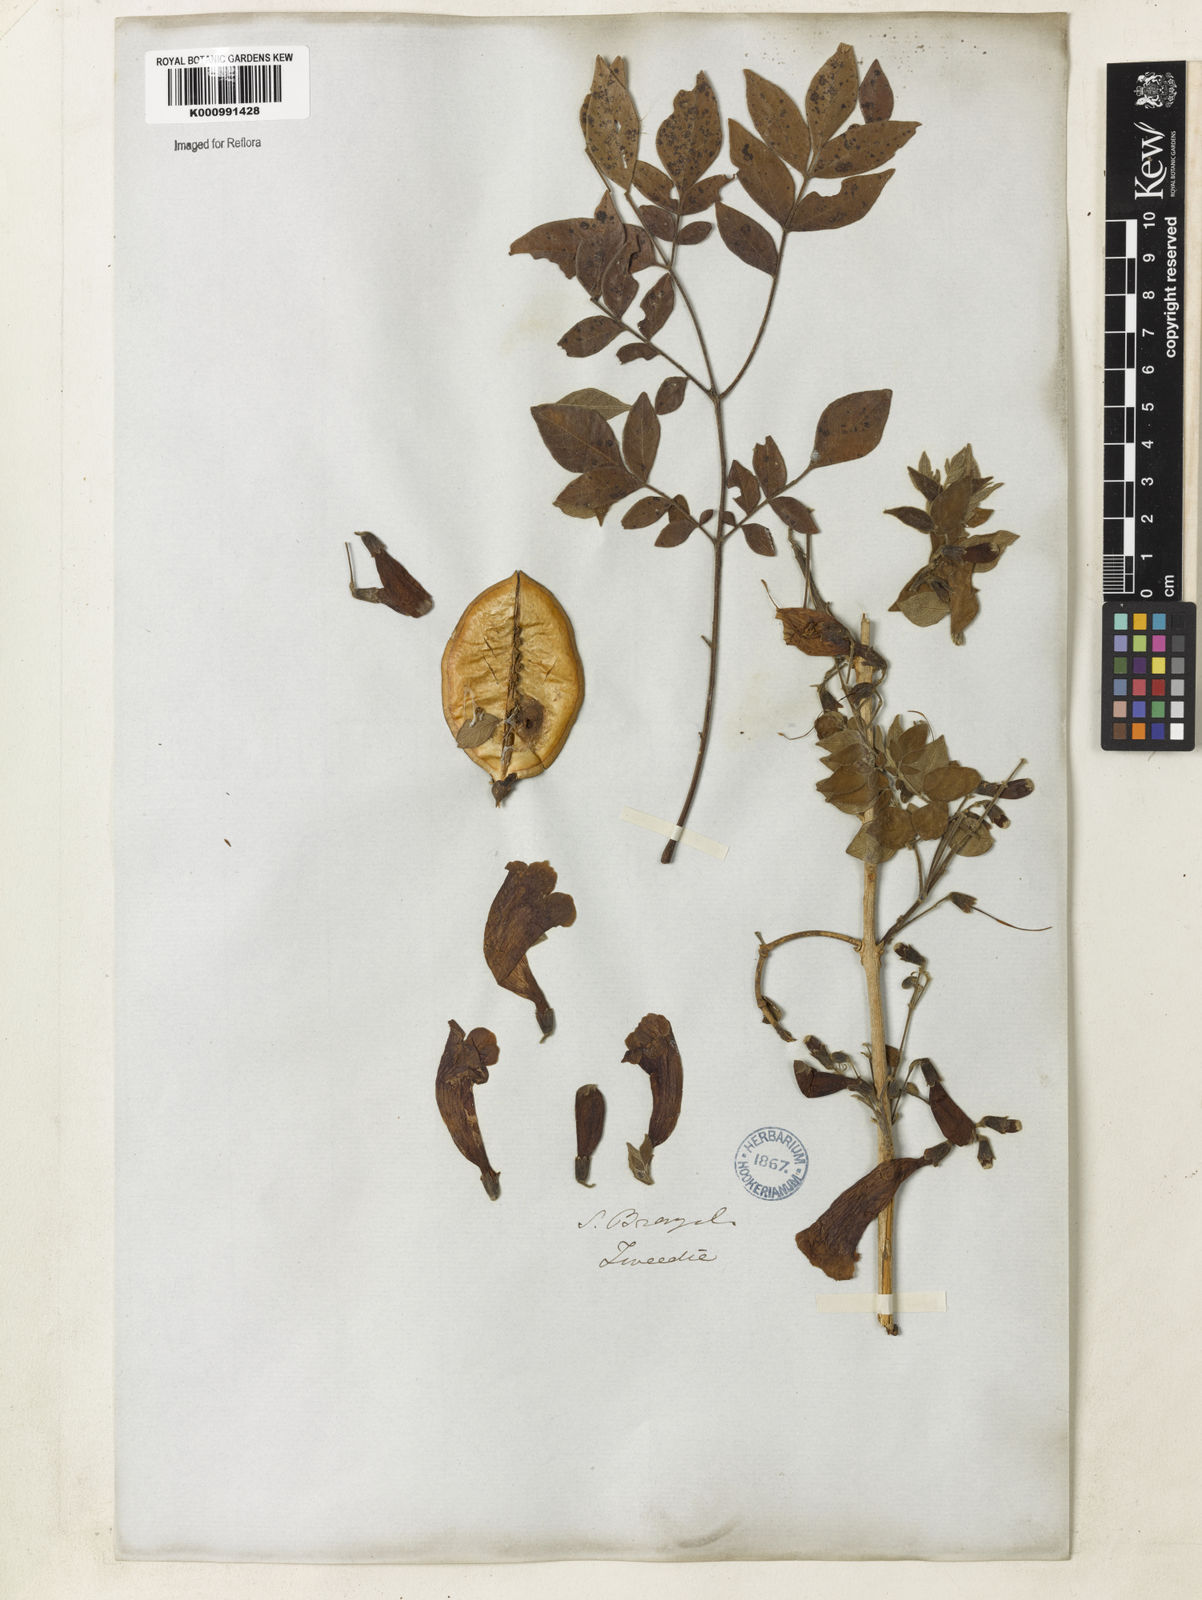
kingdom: Plantae
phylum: Tracheophyta
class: Magnoliopsida
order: Lamiales
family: Bignoniaceae
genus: Jacaranda
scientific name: Jacaranda jasminoides
